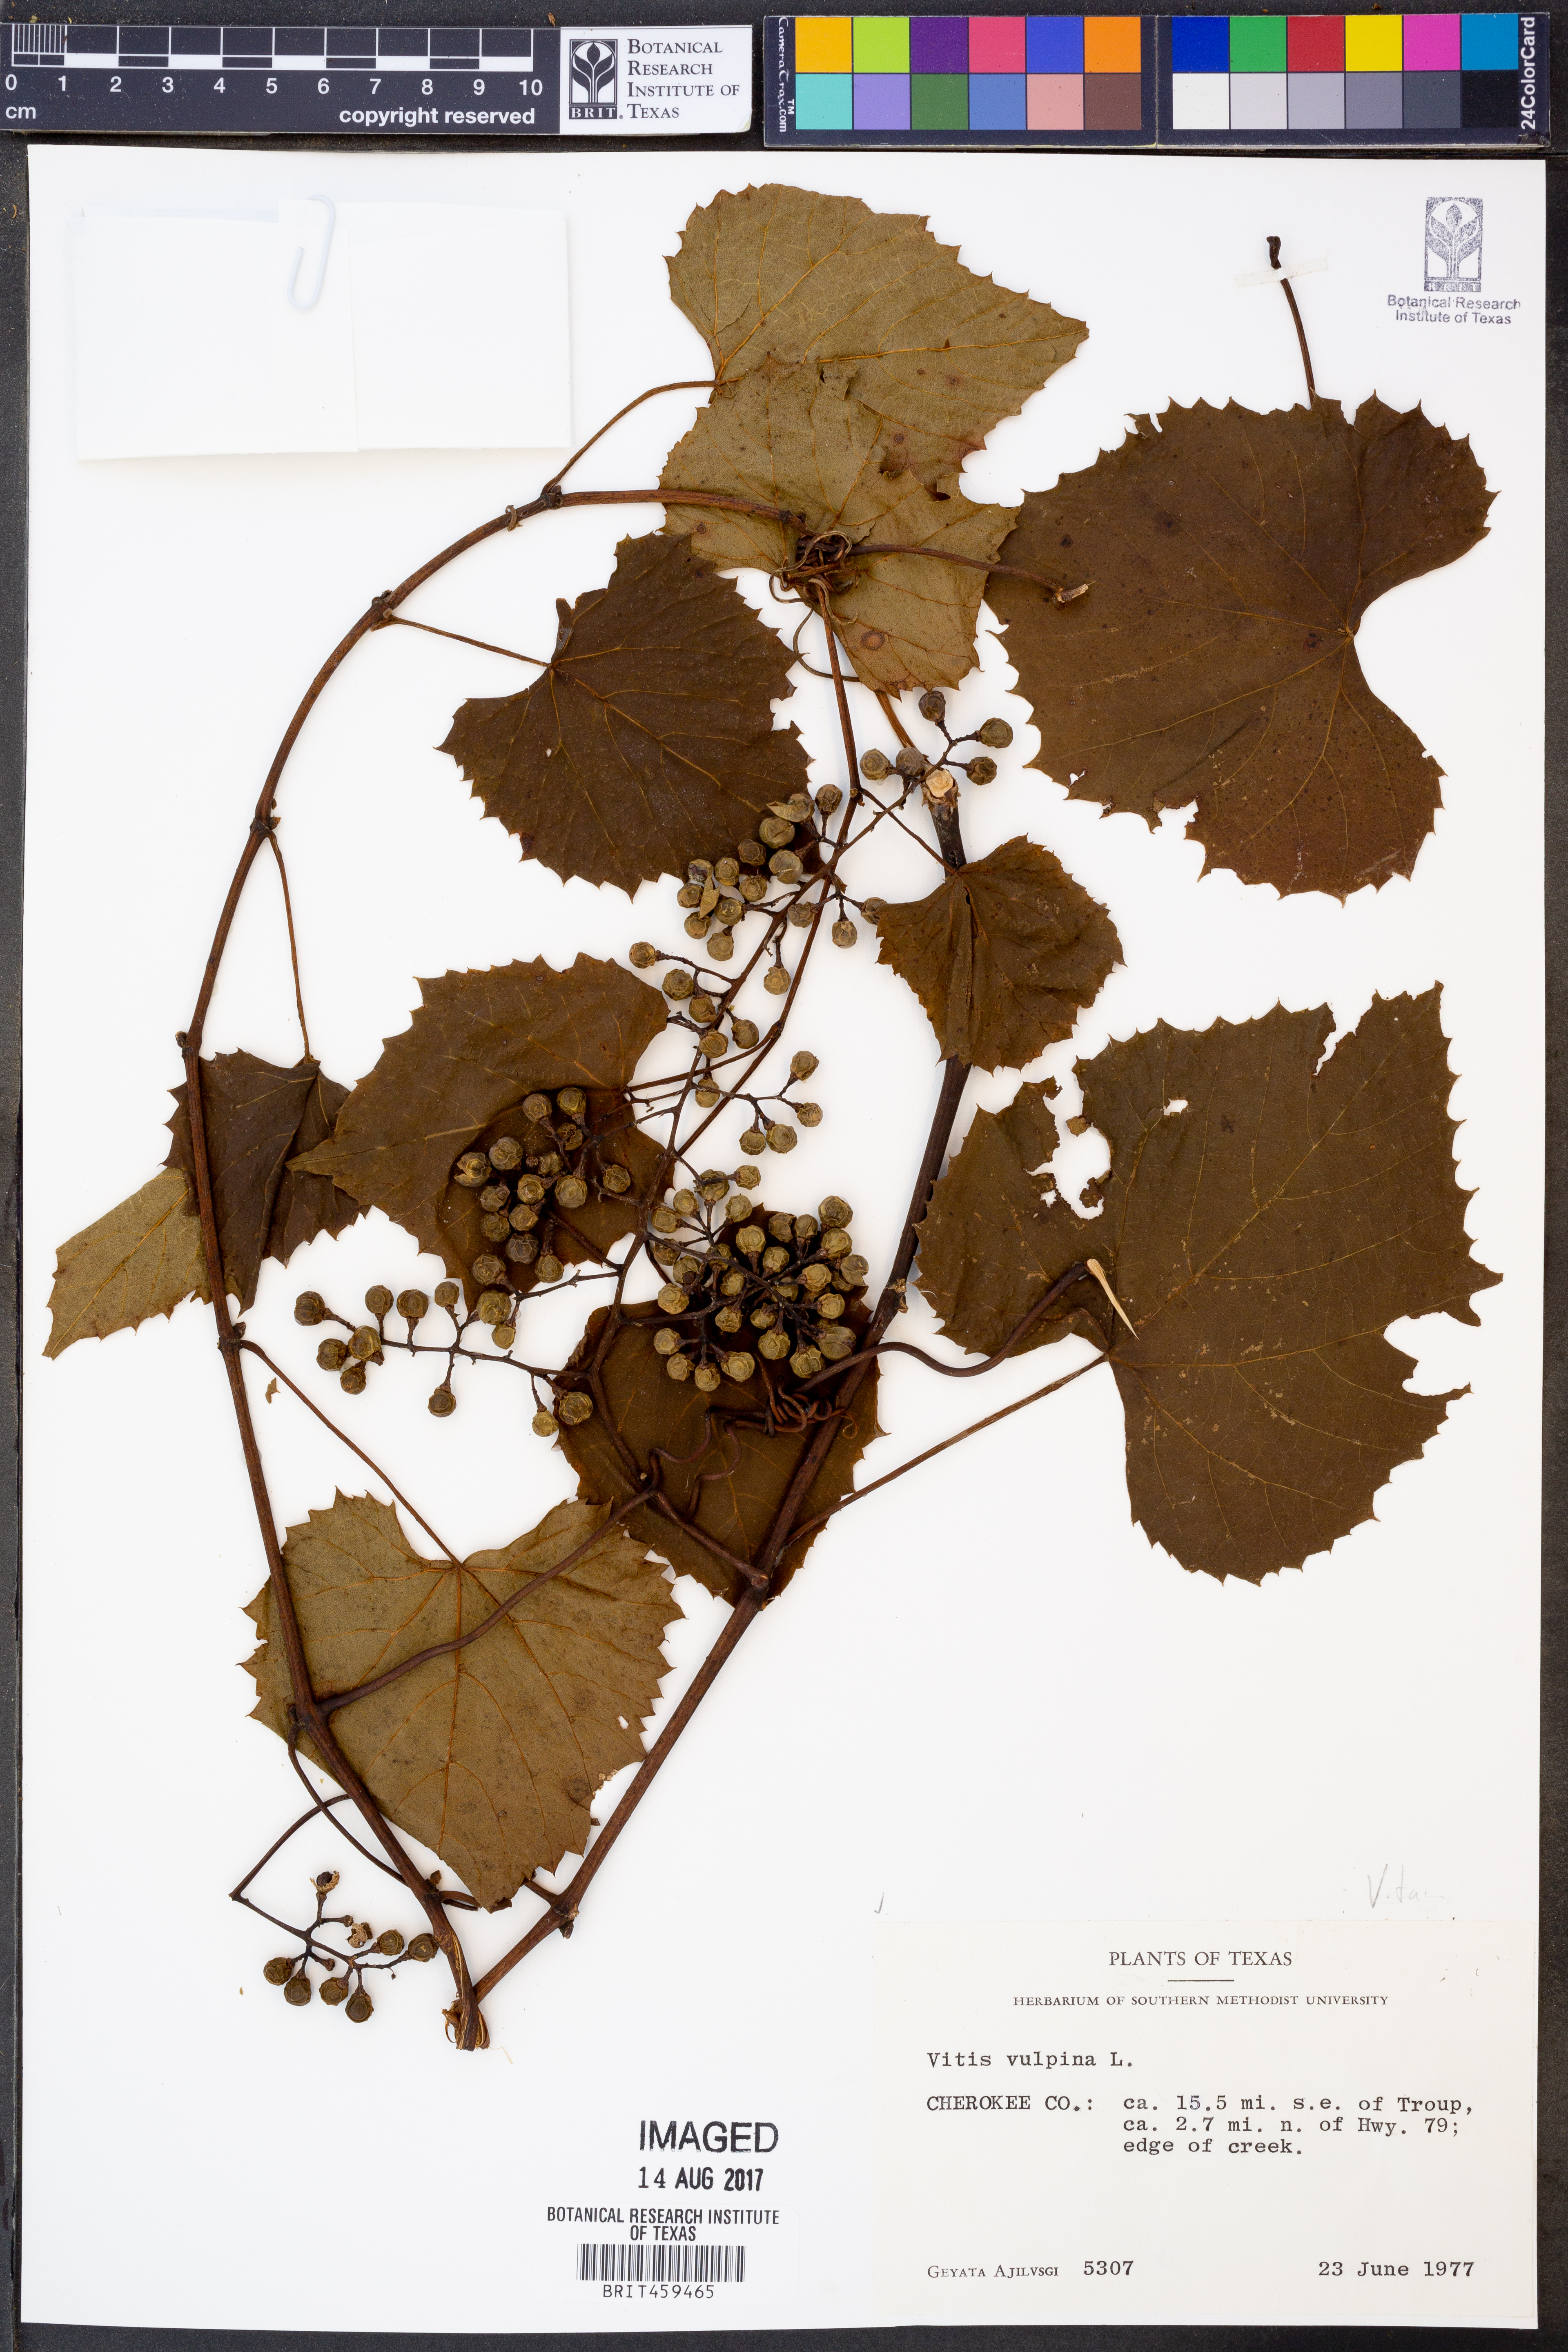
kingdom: Plantae
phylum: Tracheophyta
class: Magnoliopsida
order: Vitales
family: Vitaceae
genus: Vitis
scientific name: Vitis vulpina
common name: Frost grape
